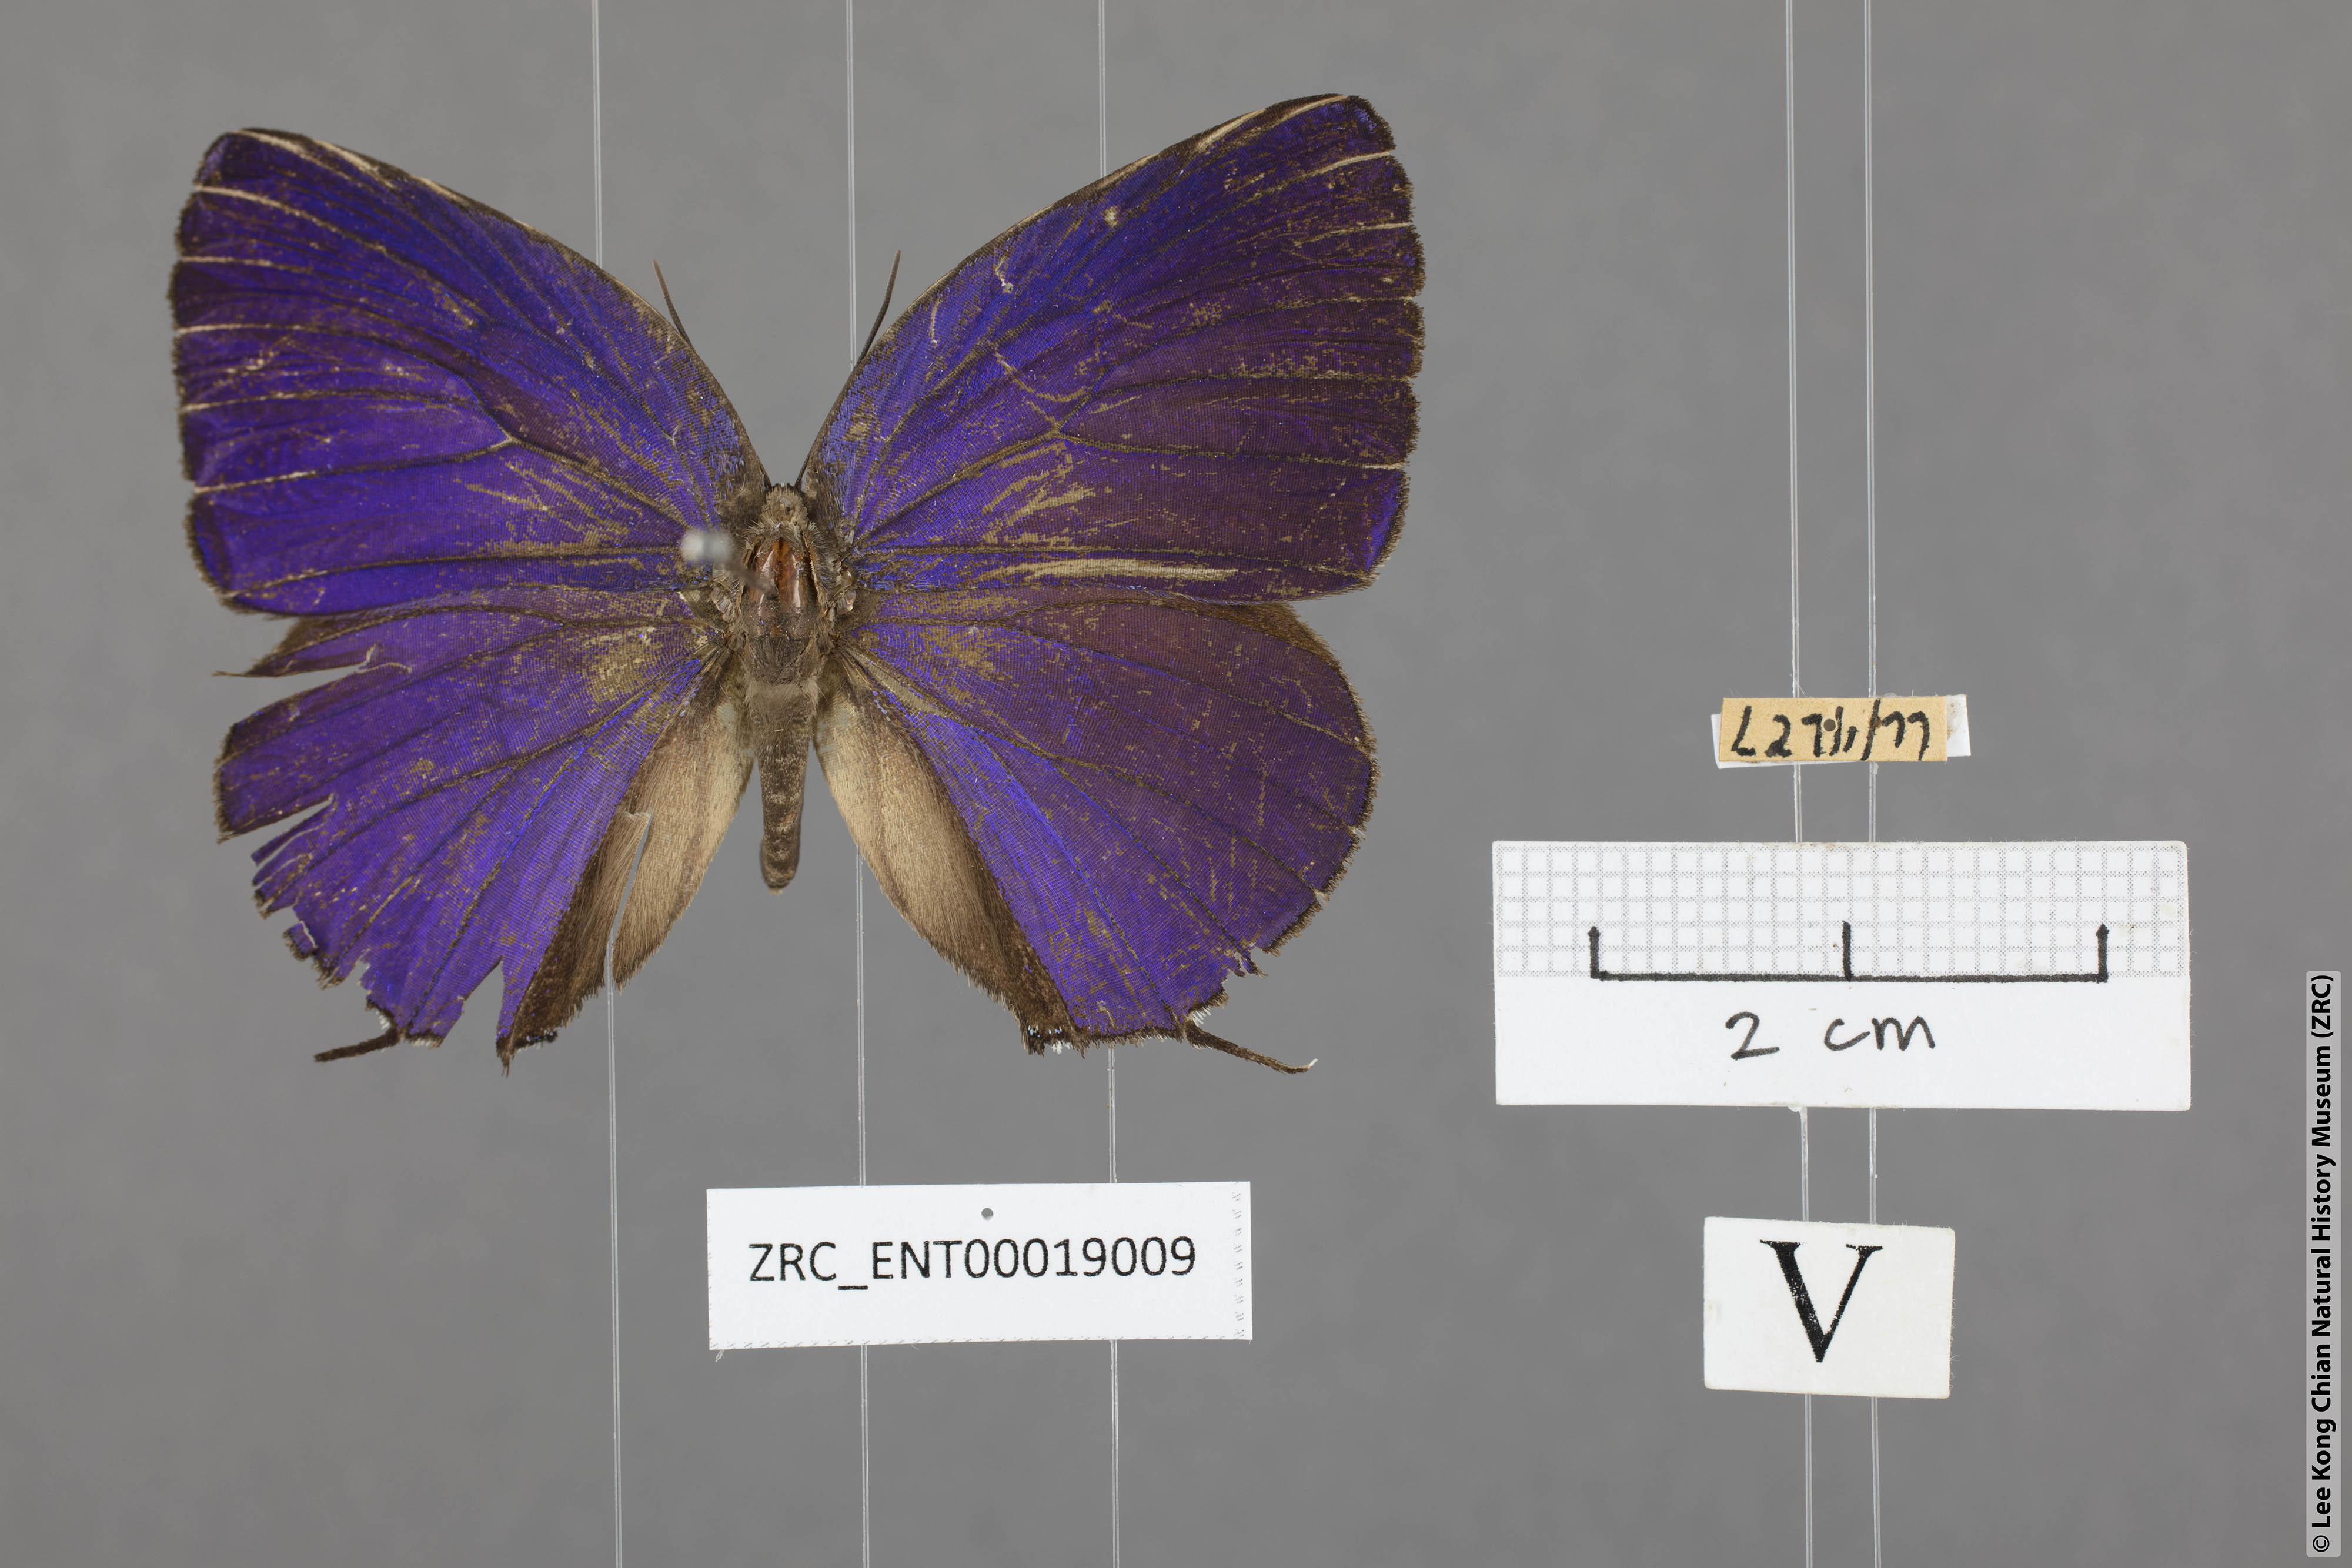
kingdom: Animalia
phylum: Arthropoda
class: Insecta
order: Lepidoptera
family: Lycaenidae
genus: Arhopala
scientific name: Arhopala aedias
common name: Large metallic oakblue
